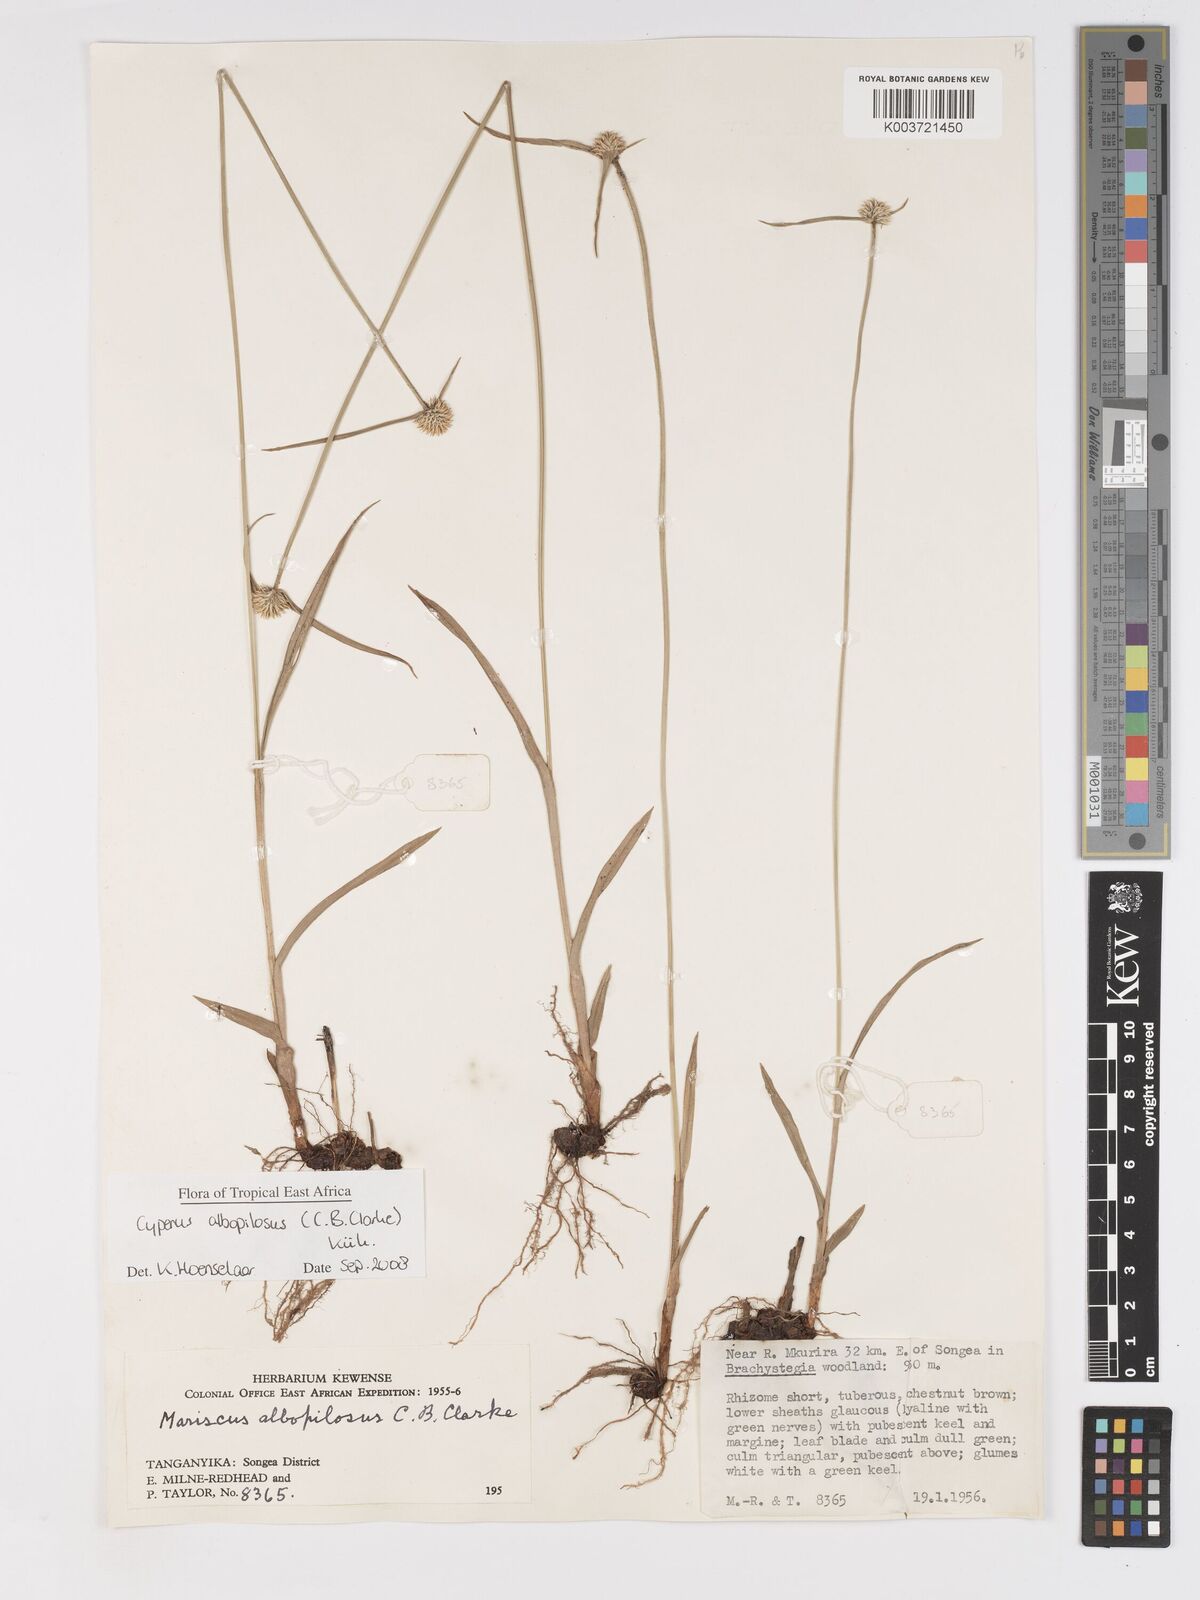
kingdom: Plantae
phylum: Tracheophyta
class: Liliopsida
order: Poales
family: Cyperaceae
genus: Cyperus
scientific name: Cyperus albopilosus
